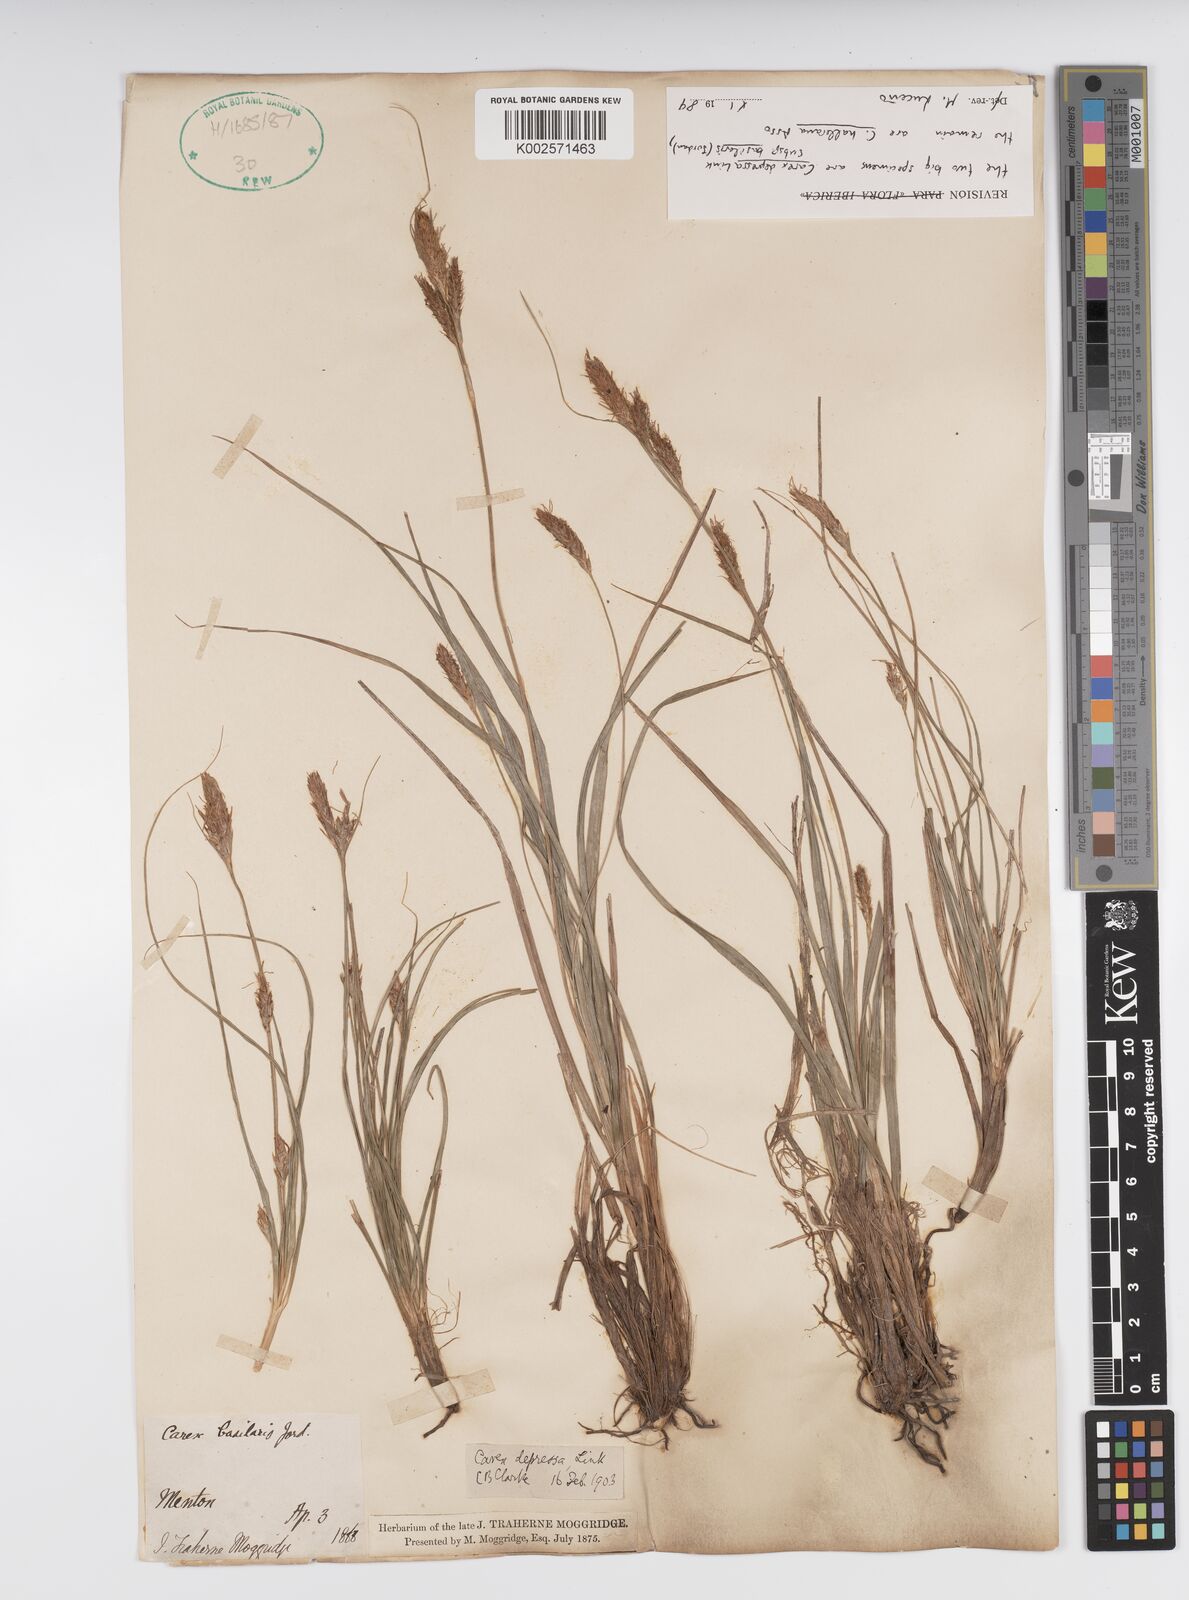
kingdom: Plantae
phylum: Tracheophyta
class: Liliopsida
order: Poales
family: Cyperaceae
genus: Carex
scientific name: Carex depressa
